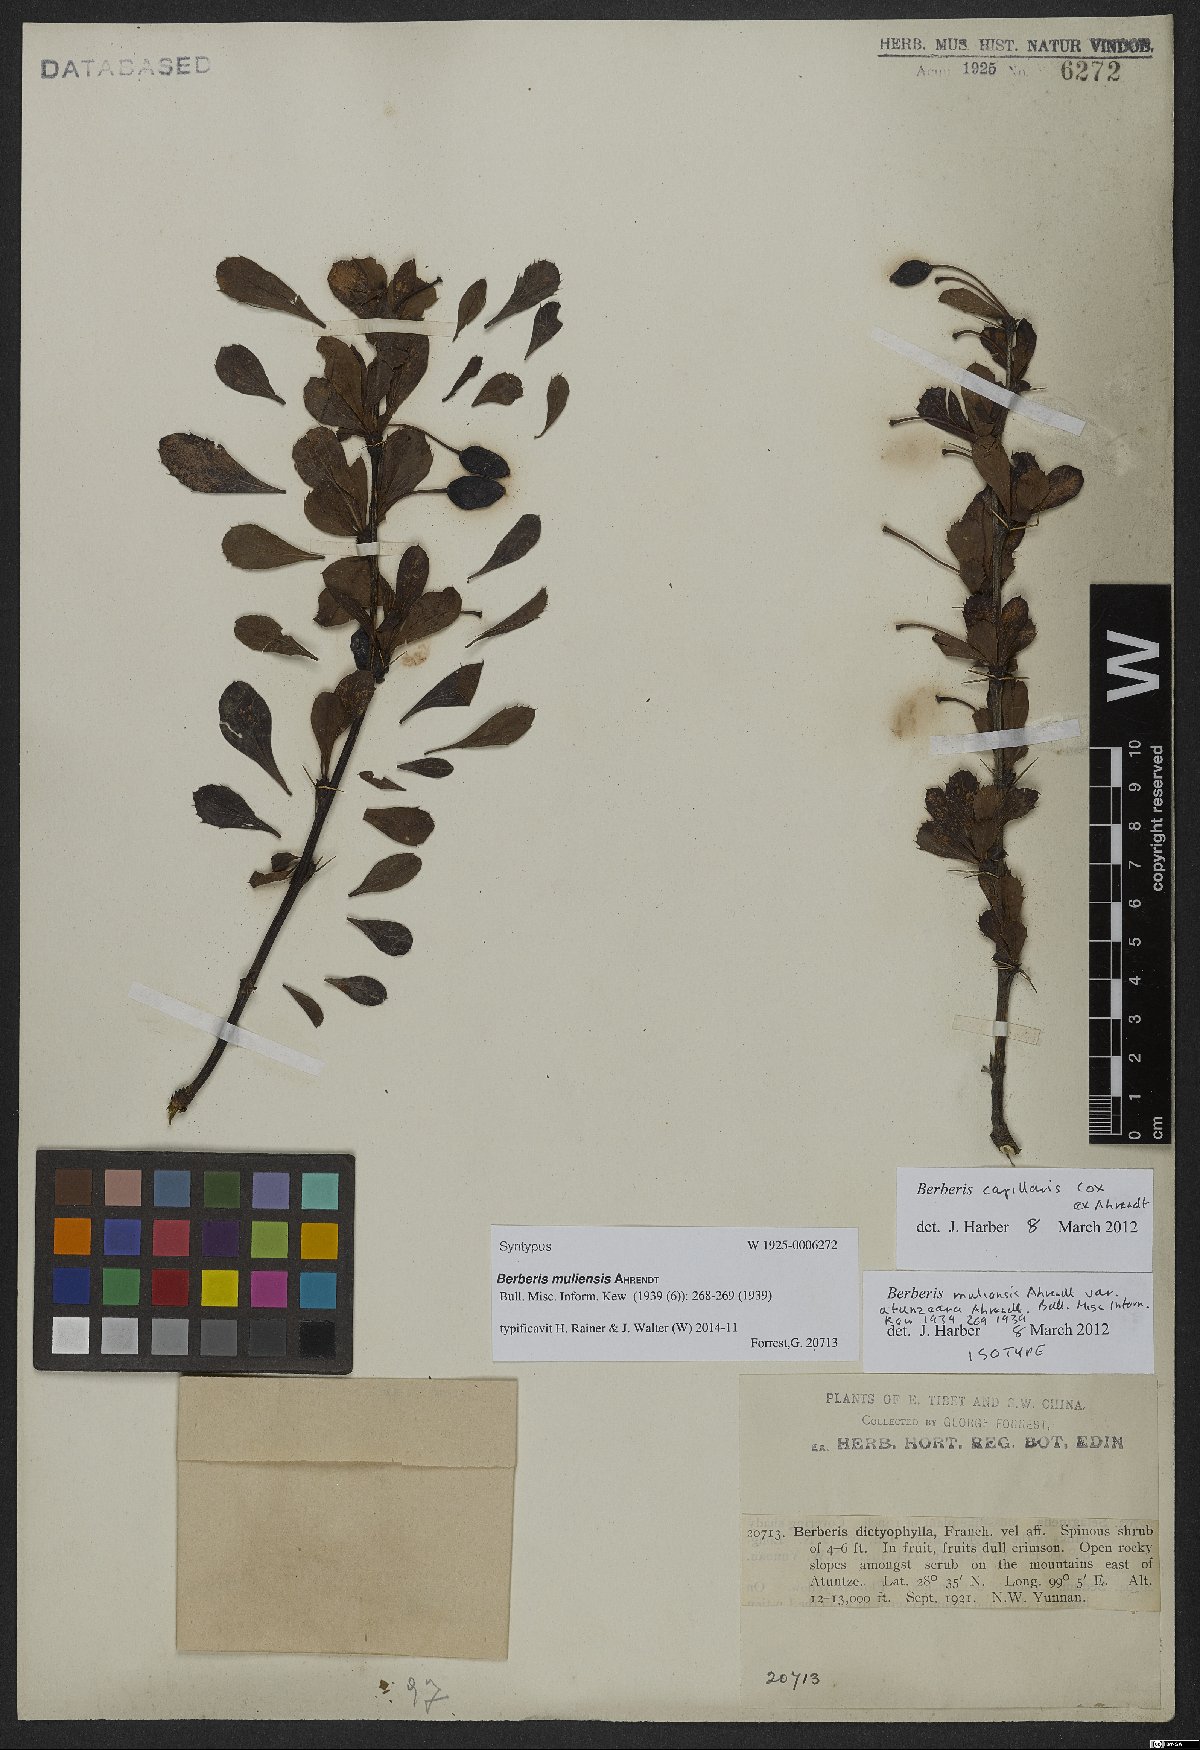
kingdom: Plantae
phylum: Tracheophyta
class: Magnoliopsida
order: Ranunculales
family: Berberidaceae
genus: Berberis
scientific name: Berberis capillaris
